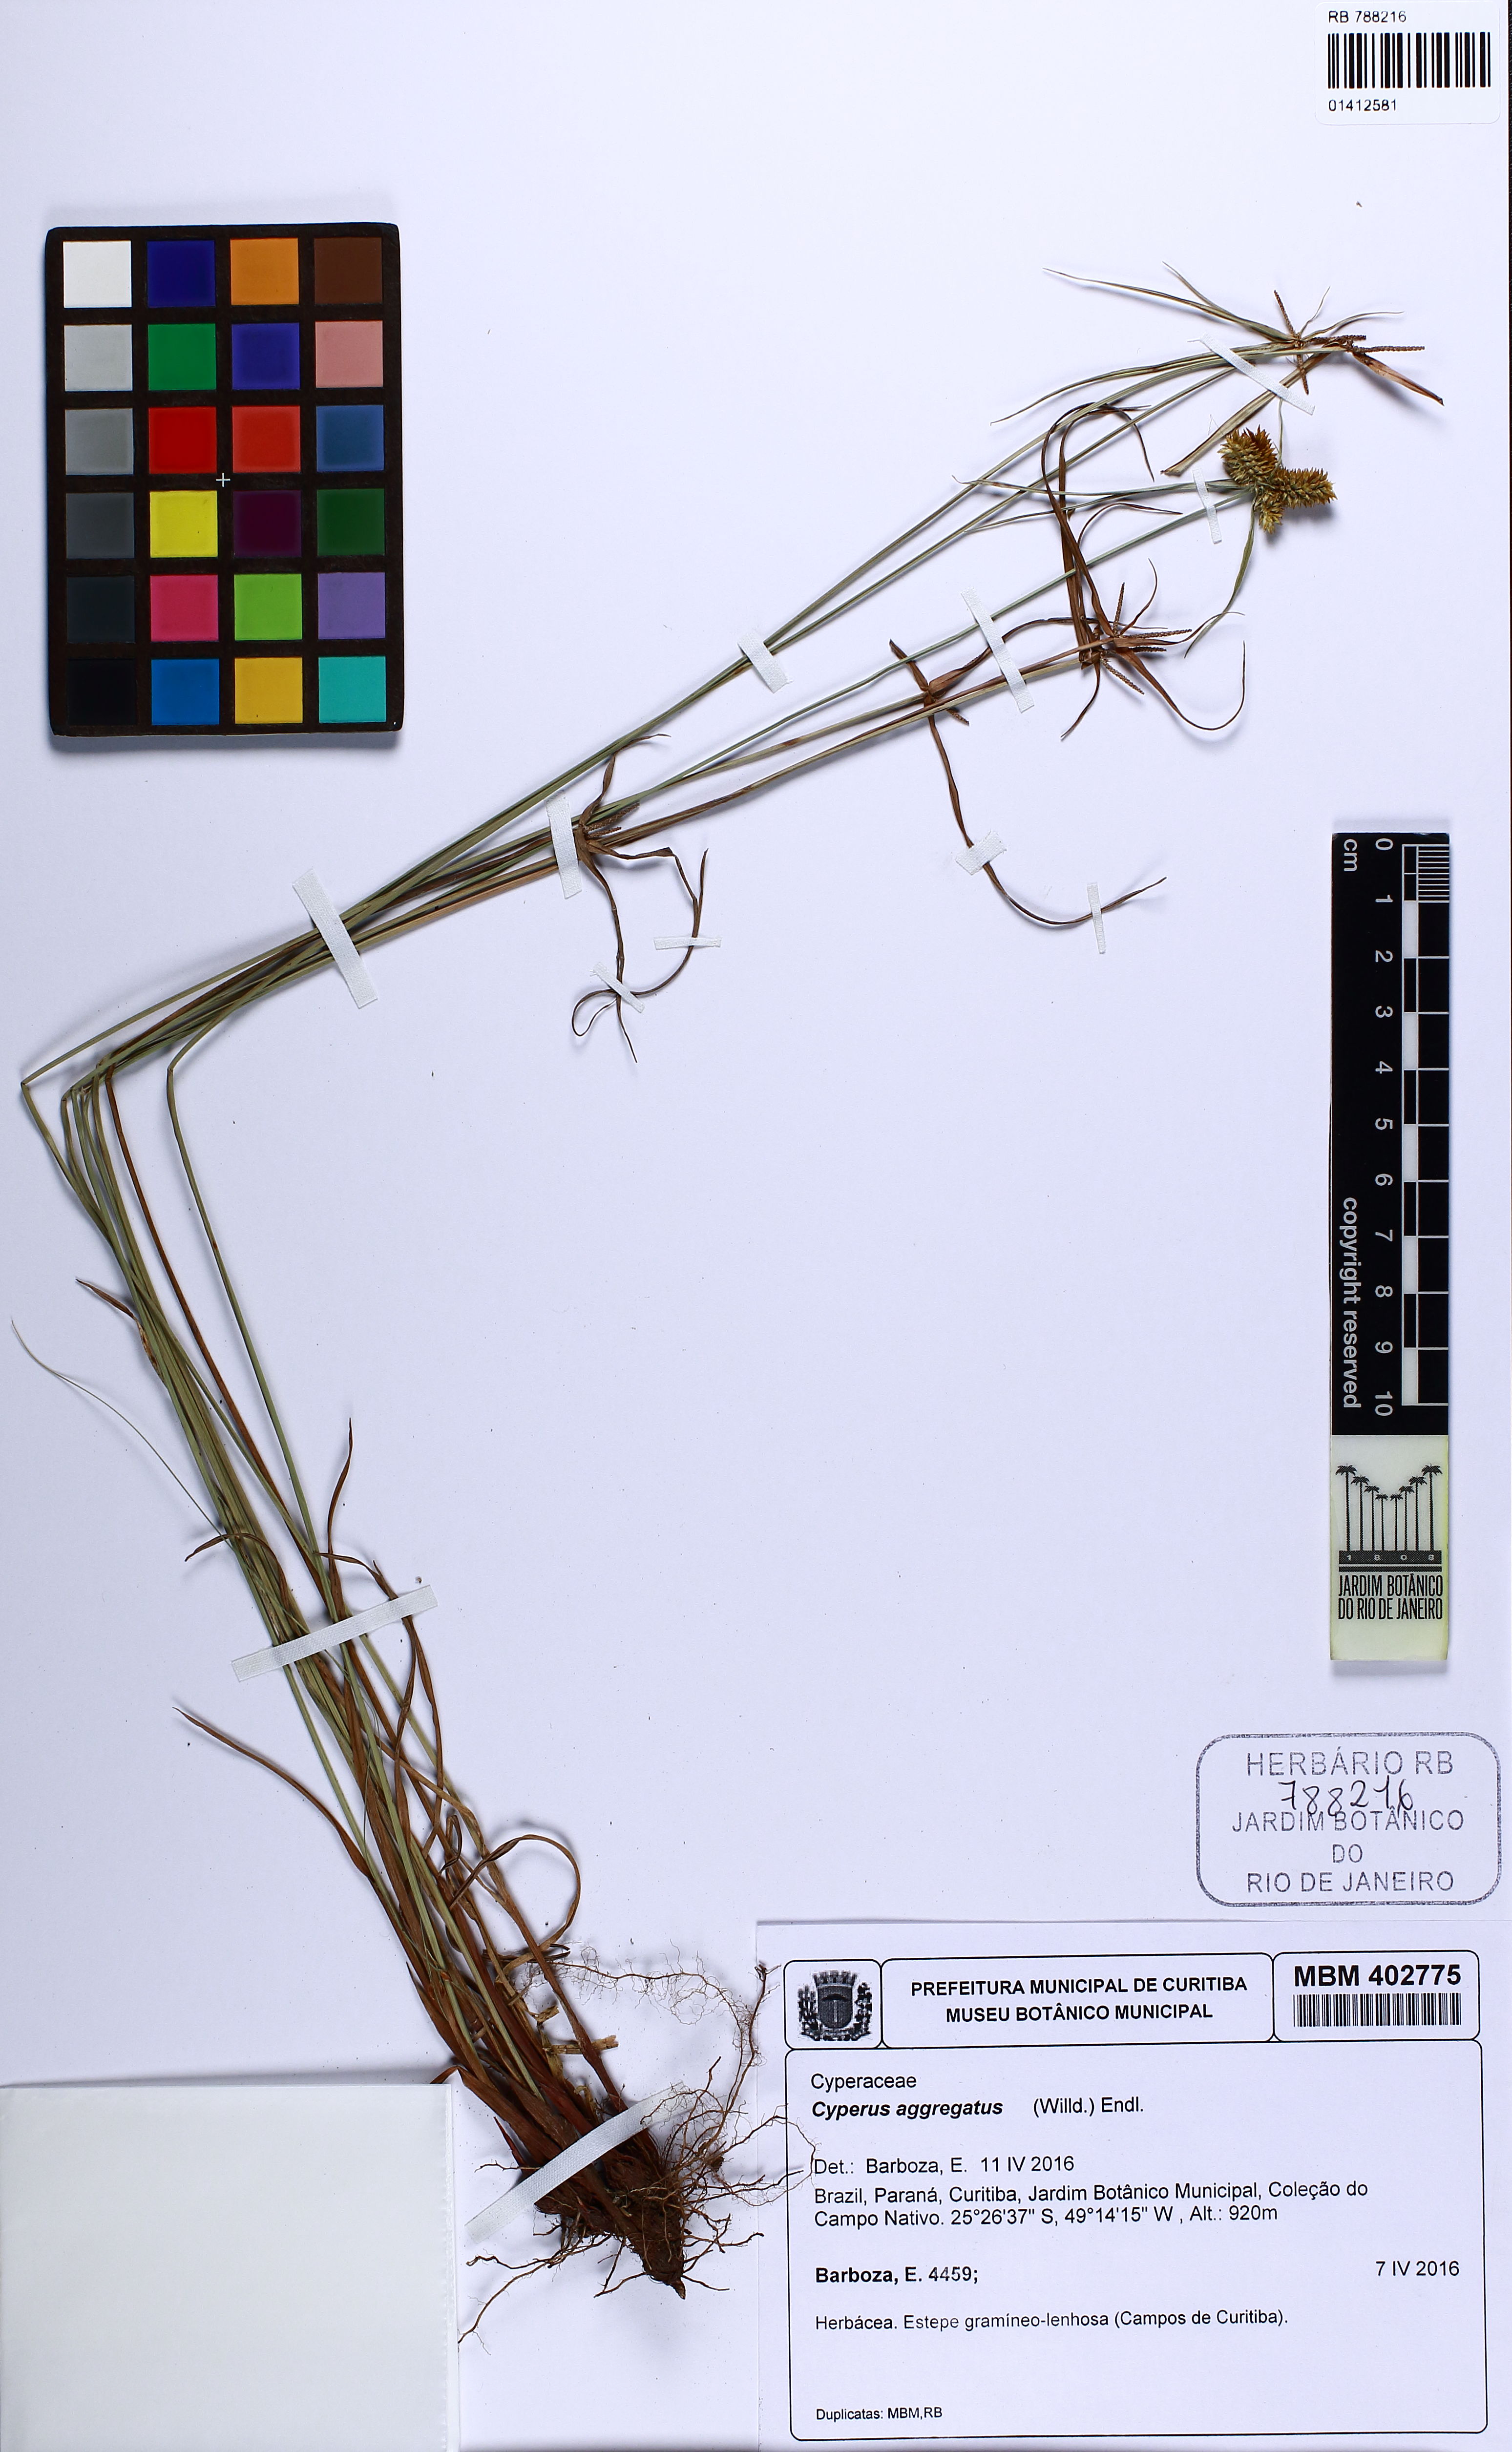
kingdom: Plantae
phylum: Tracheophyta
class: Liliopsida
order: Poales
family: Cyperaceae
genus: Cyperus
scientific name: Cyperus aggregatus
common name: Inflatedscale flatsedge
